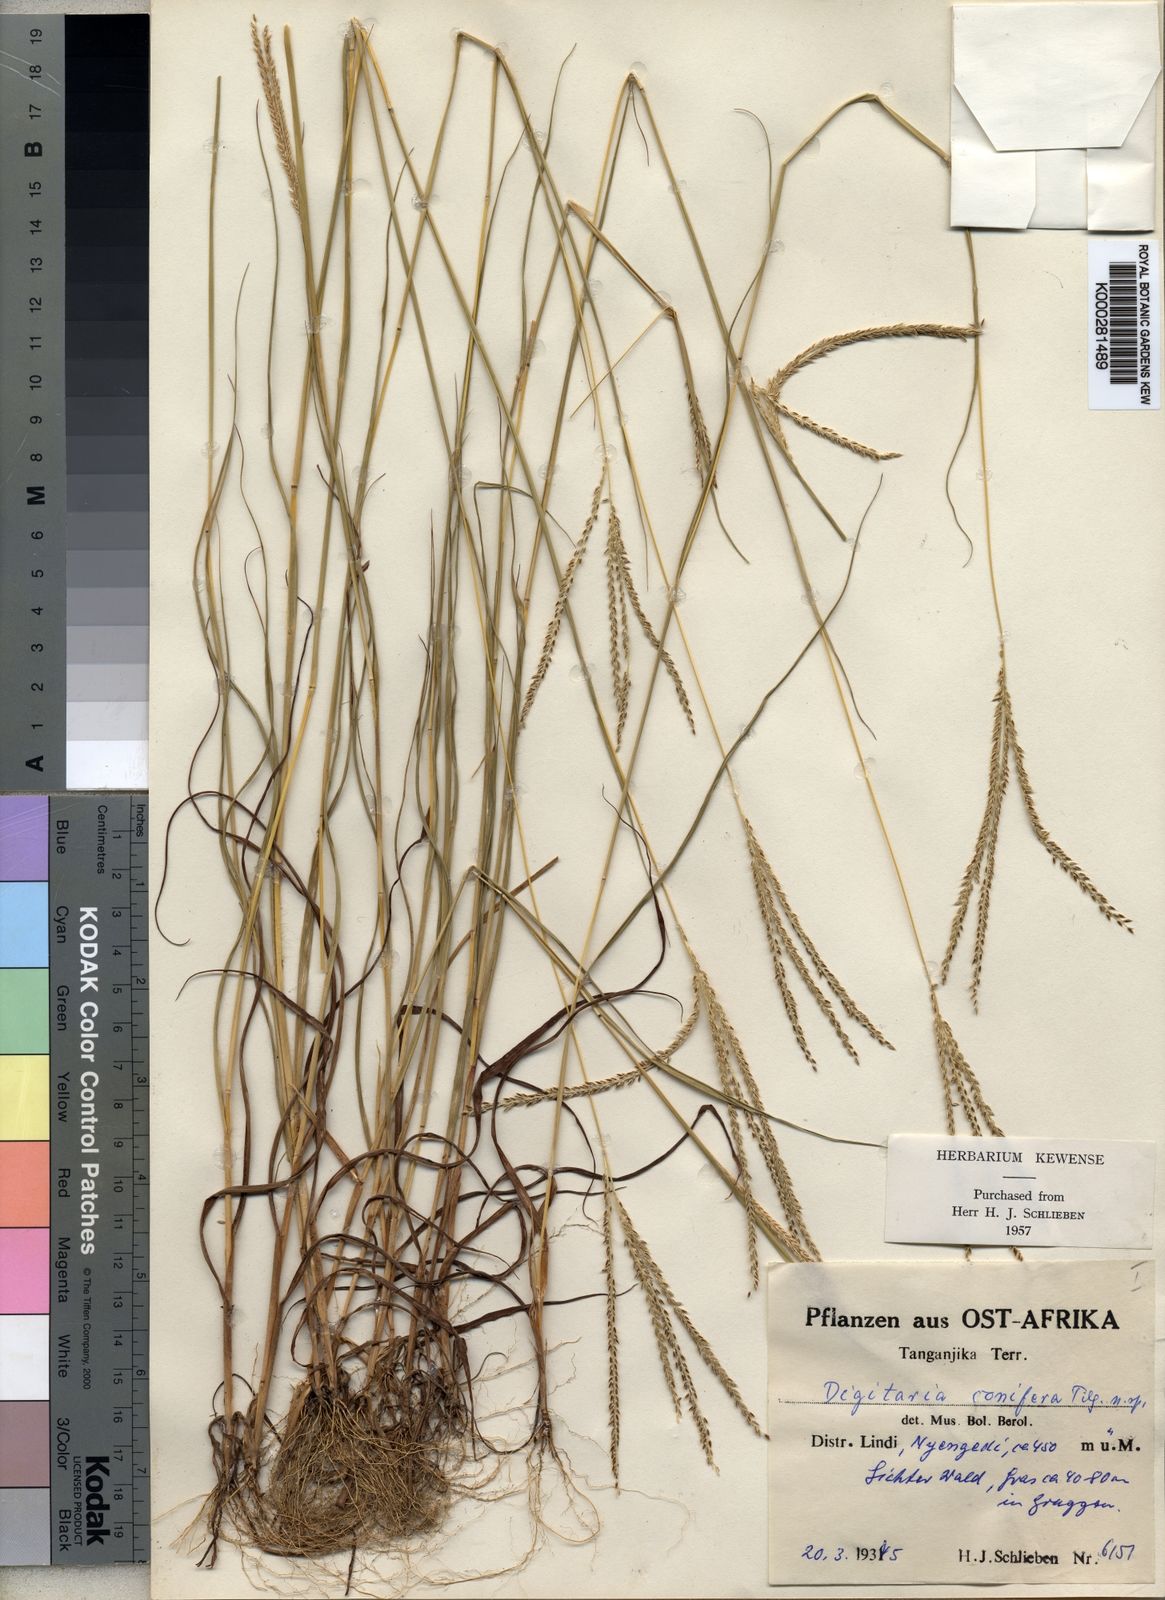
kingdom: Plantae
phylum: Tracheophyta
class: Liliopsida
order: Poales
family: Poaceae
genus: Digitaria
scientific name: Digitaria comifera
